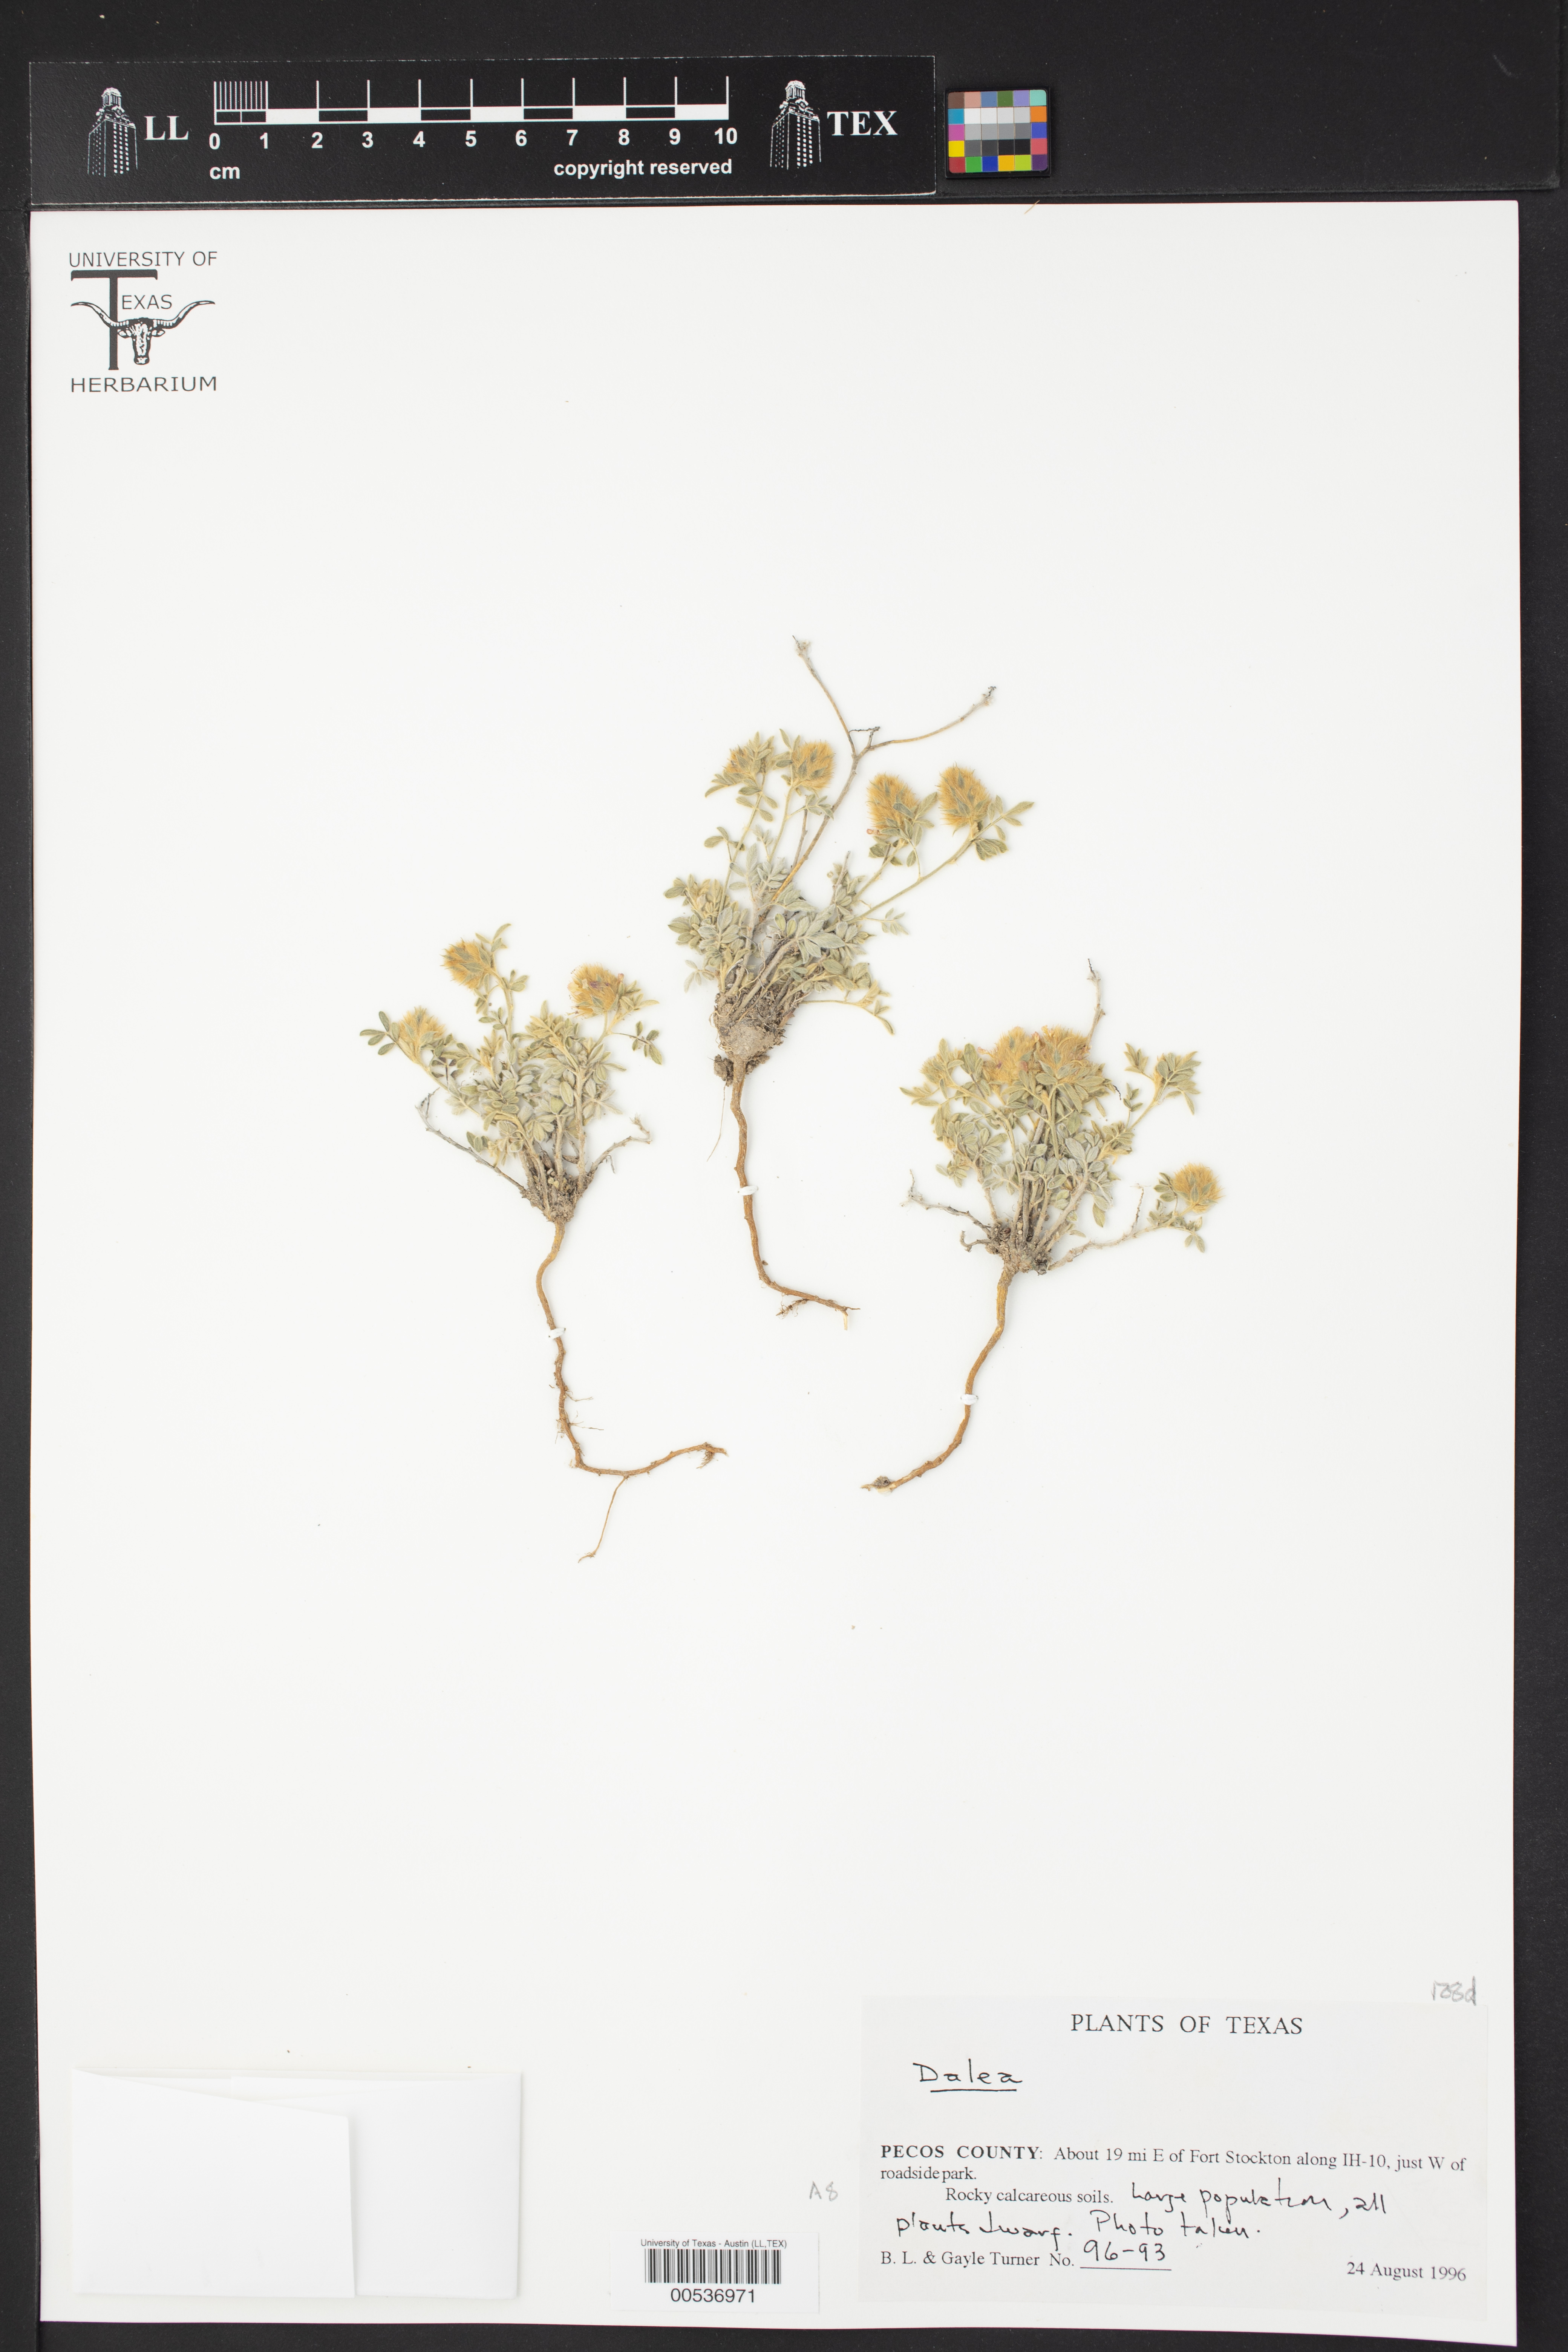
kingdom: Plantae
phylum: Tracheophyta
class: Magnoliopsida
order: Fabales
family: Fabaceae
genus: Dalea
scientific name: Dalea
